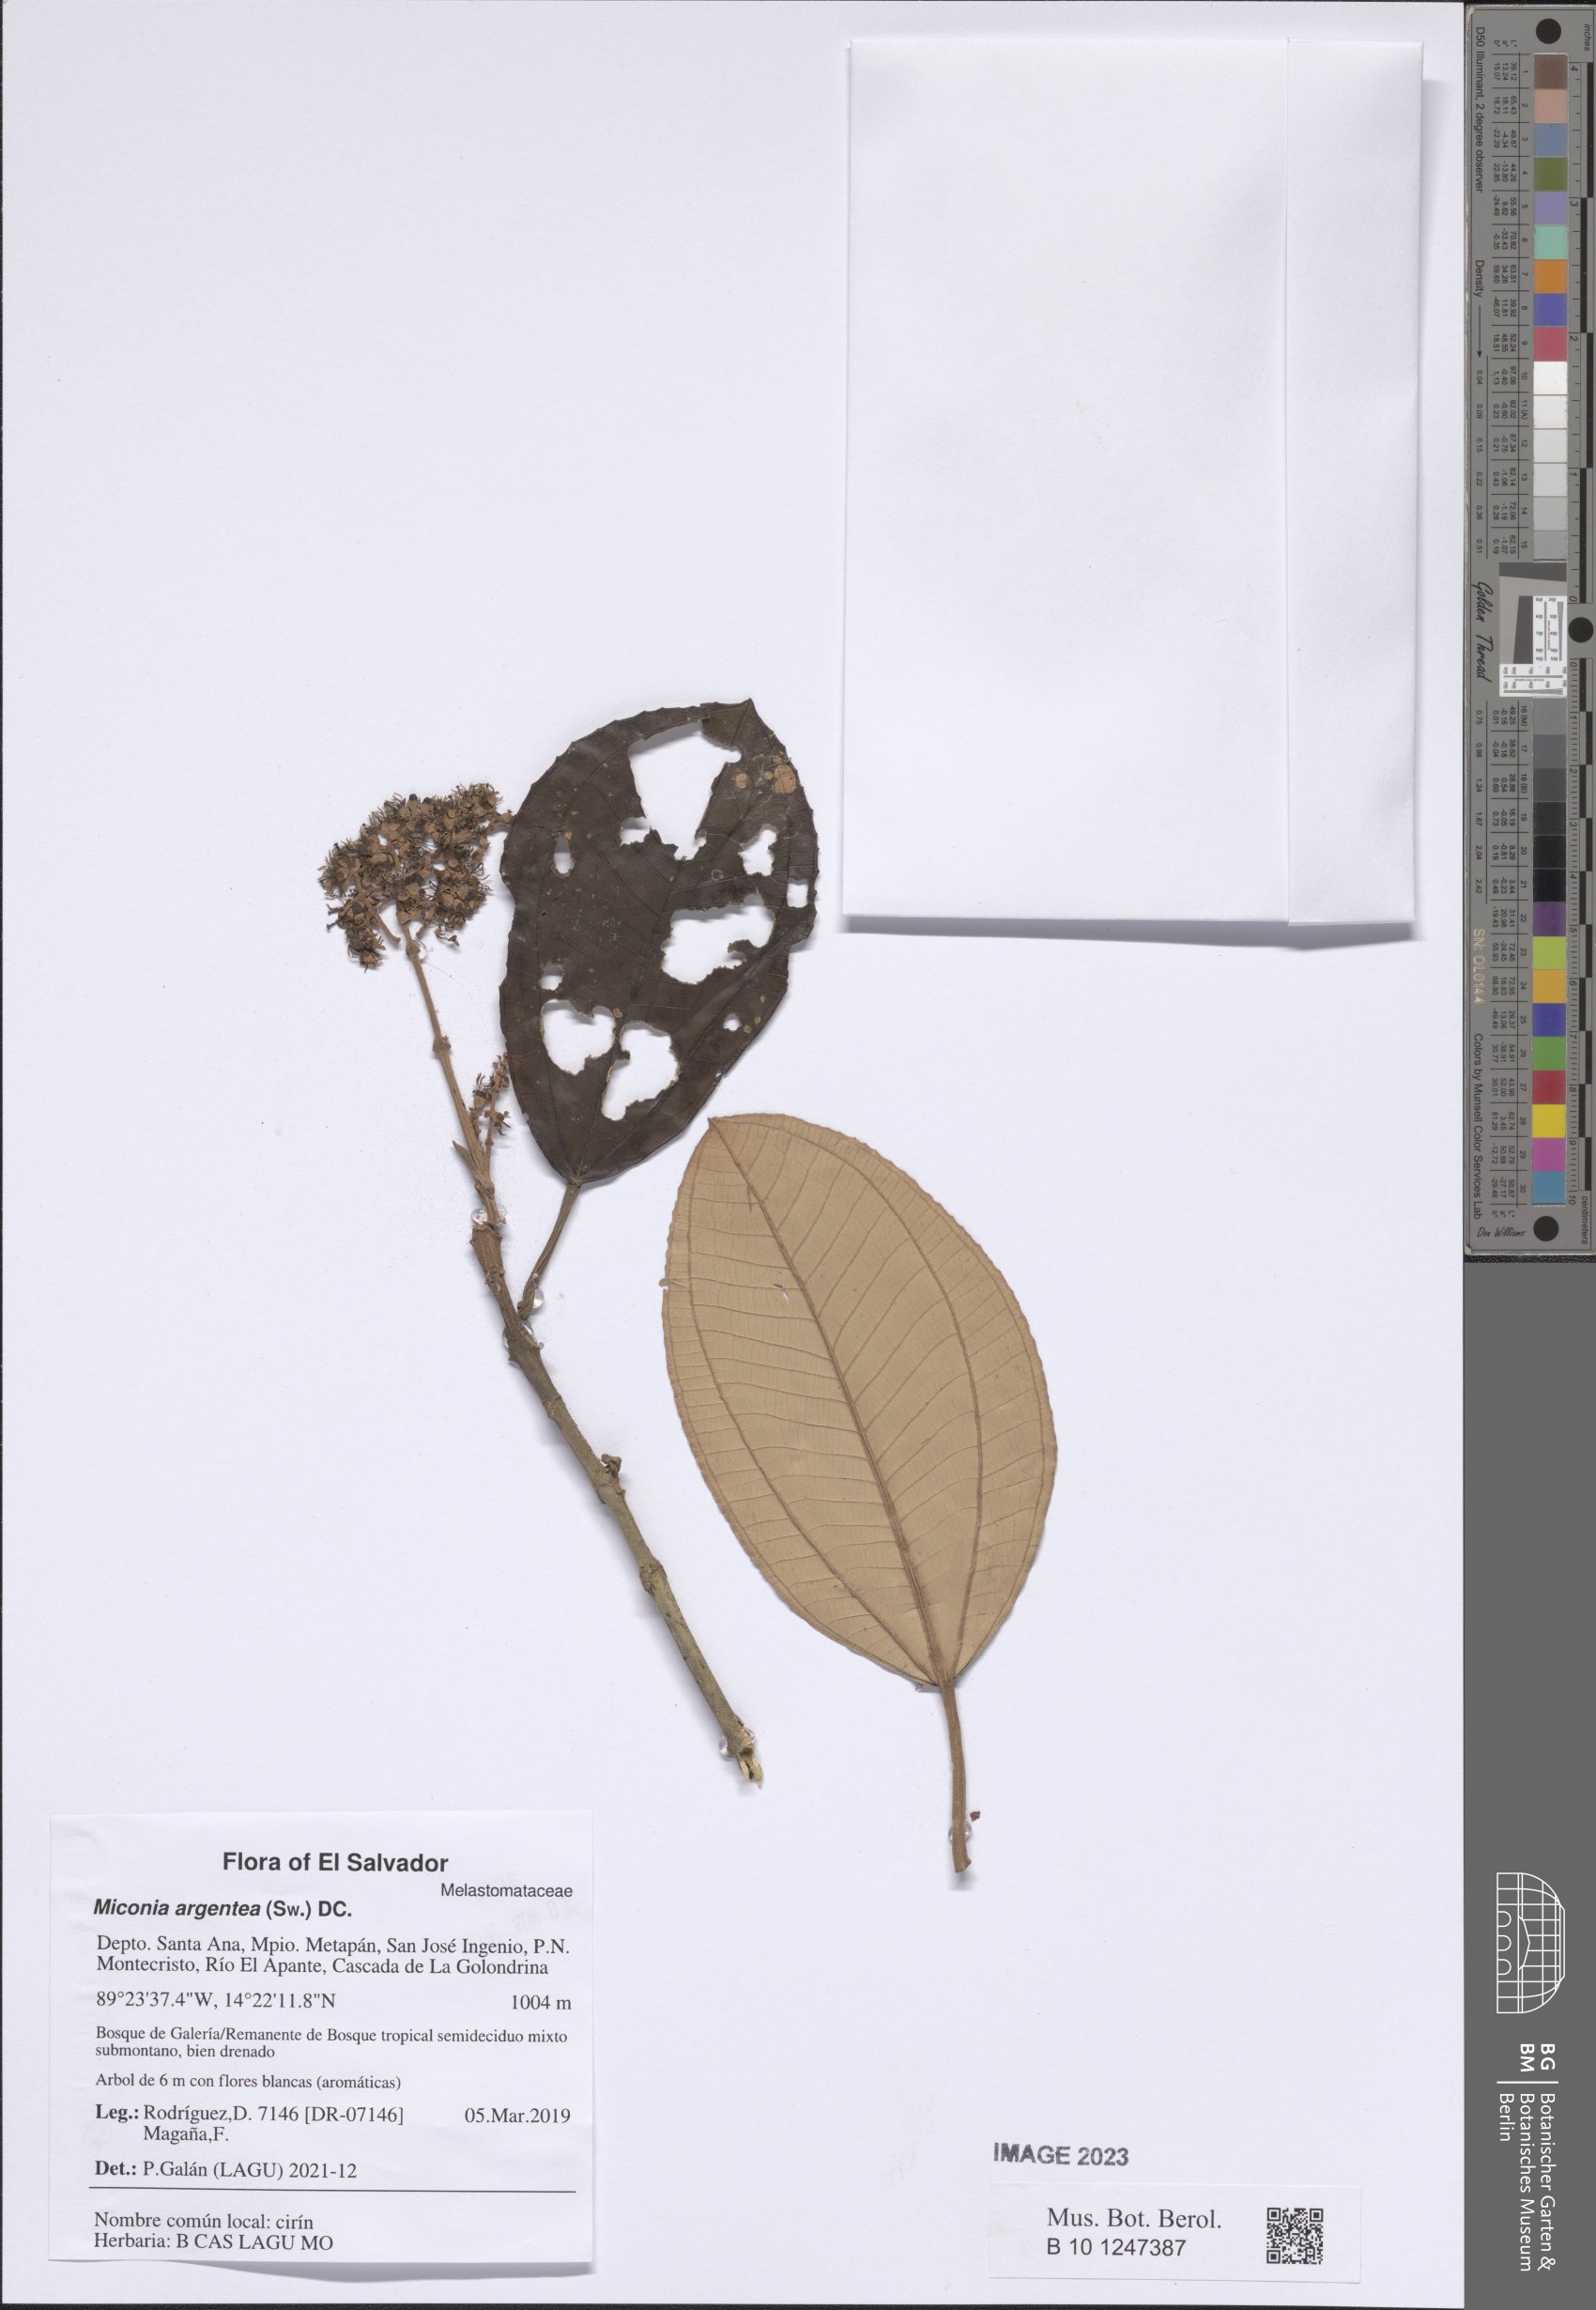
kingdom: Plantae
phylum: Tracheophyta
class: Magnoliopsida
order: Myrtales
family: Melastomataceae
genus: Miconia
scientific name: Miconia argentea
